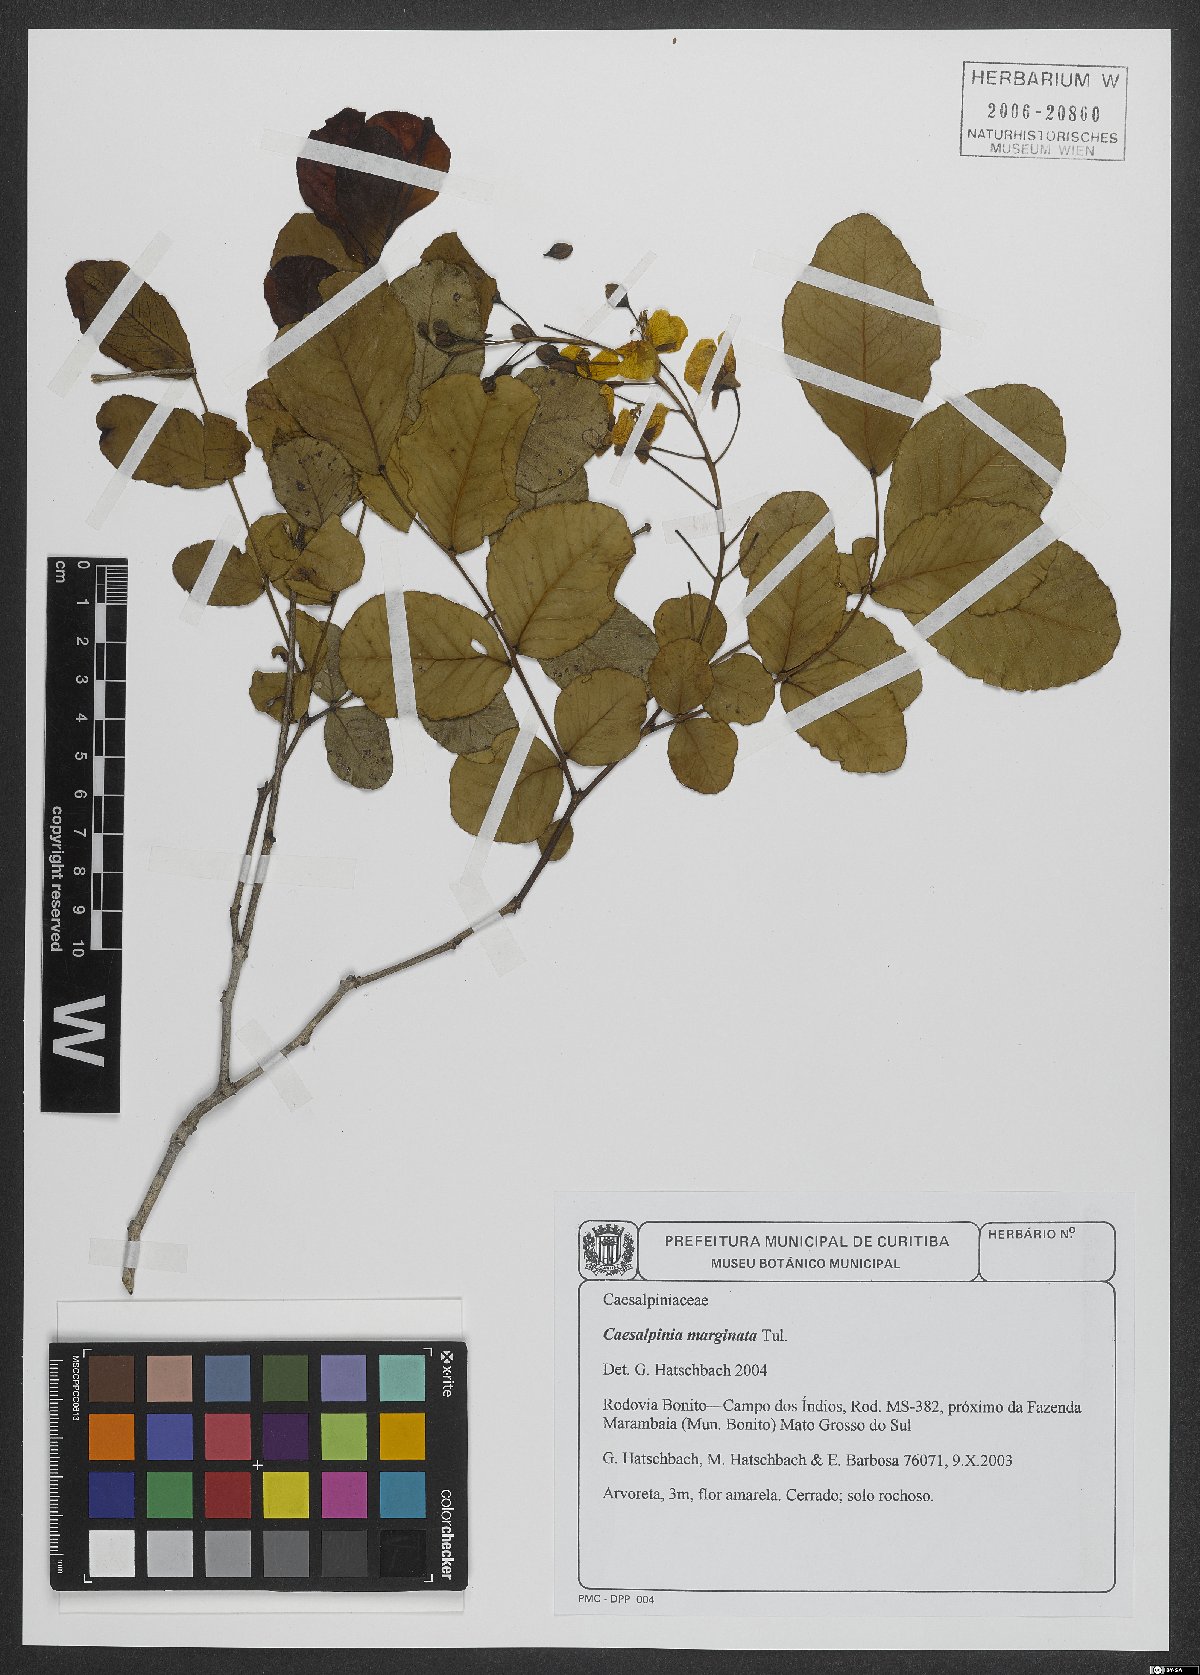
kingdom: Plantae
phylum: Tracheophyta
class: Magnoliopsida
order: Fabales
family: Fabaceae
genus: Cenostigma
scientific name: Cenostigma marginatum
